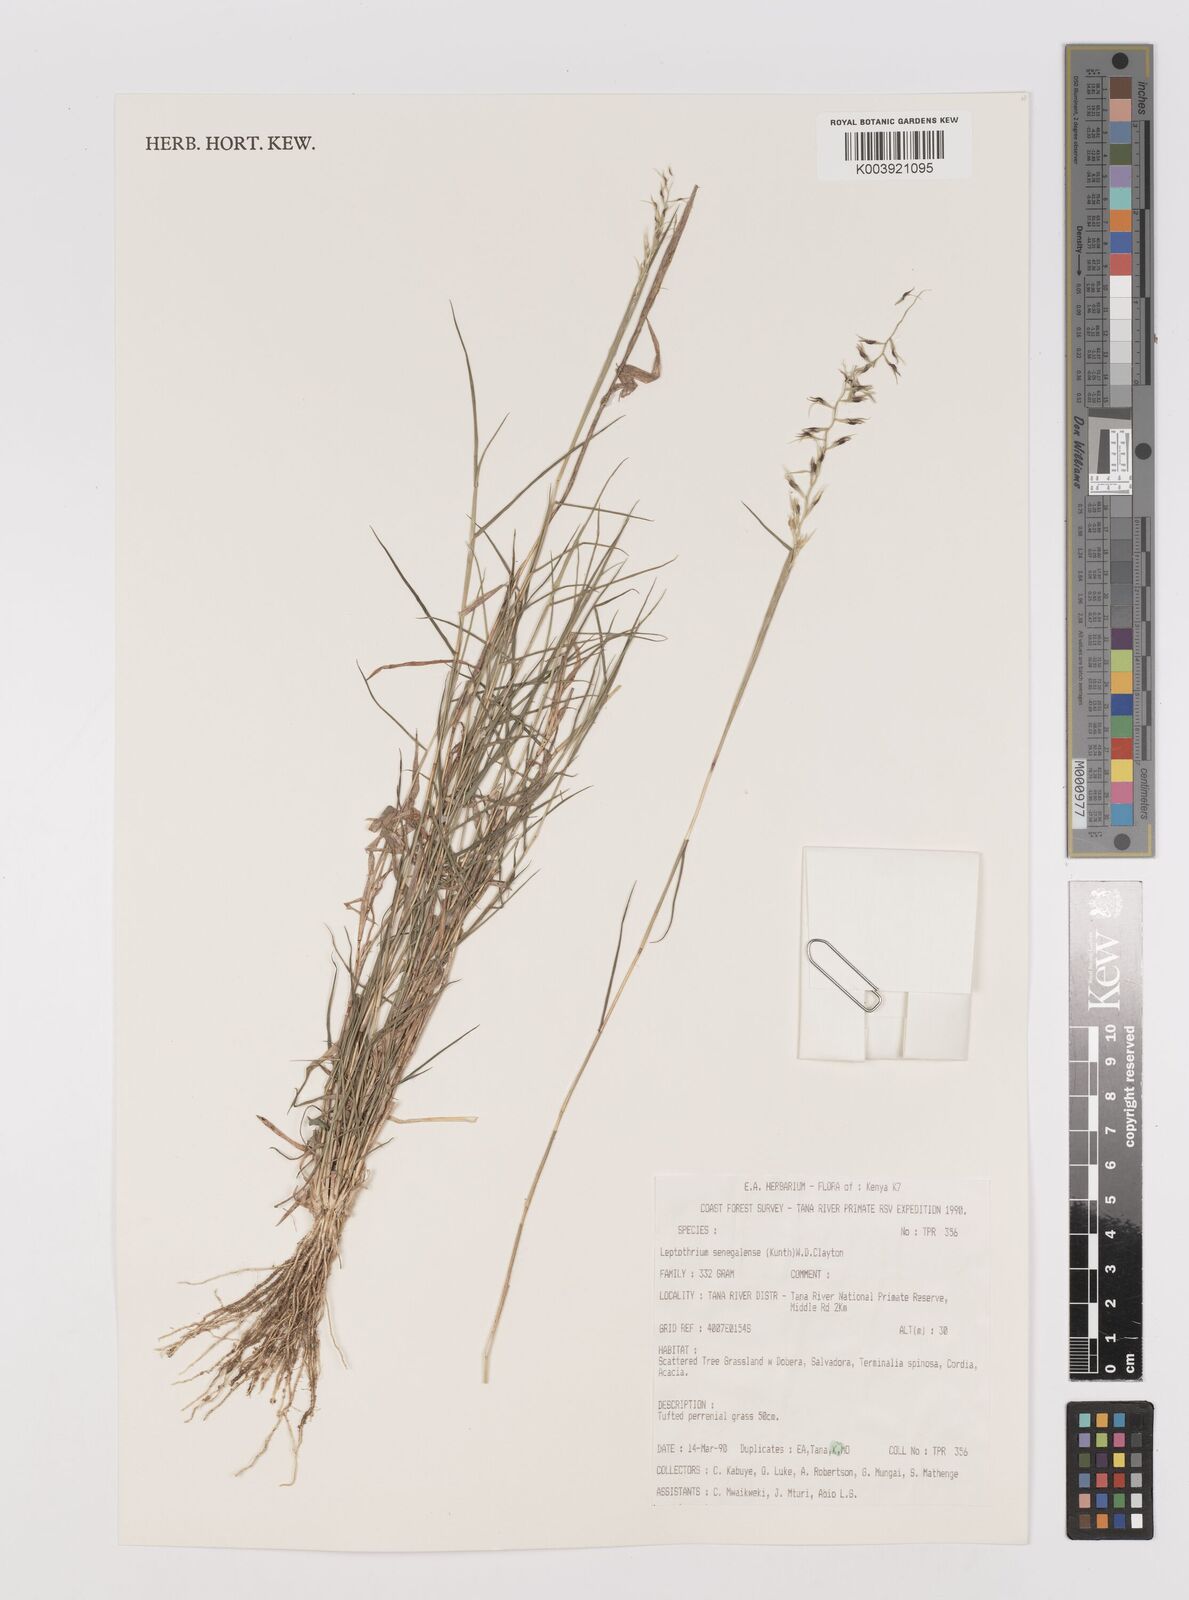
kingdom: Plantae
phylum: Tracheophyta
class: Liliopsida
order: Poales
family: Poaceae
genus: Leptothrium
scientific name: Leptothrium senegalense
